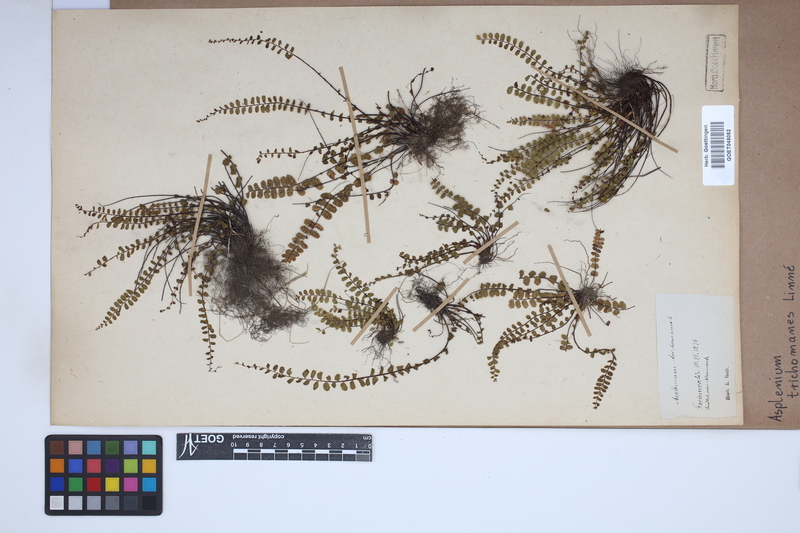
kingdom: Plantae
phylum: Tracheophyta
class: Polypodiopsida
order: Polypodiales
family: Aspleniaceae
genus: Asplenium
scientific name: Asplenium trichomanes
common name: Maidenhair spleenwort
